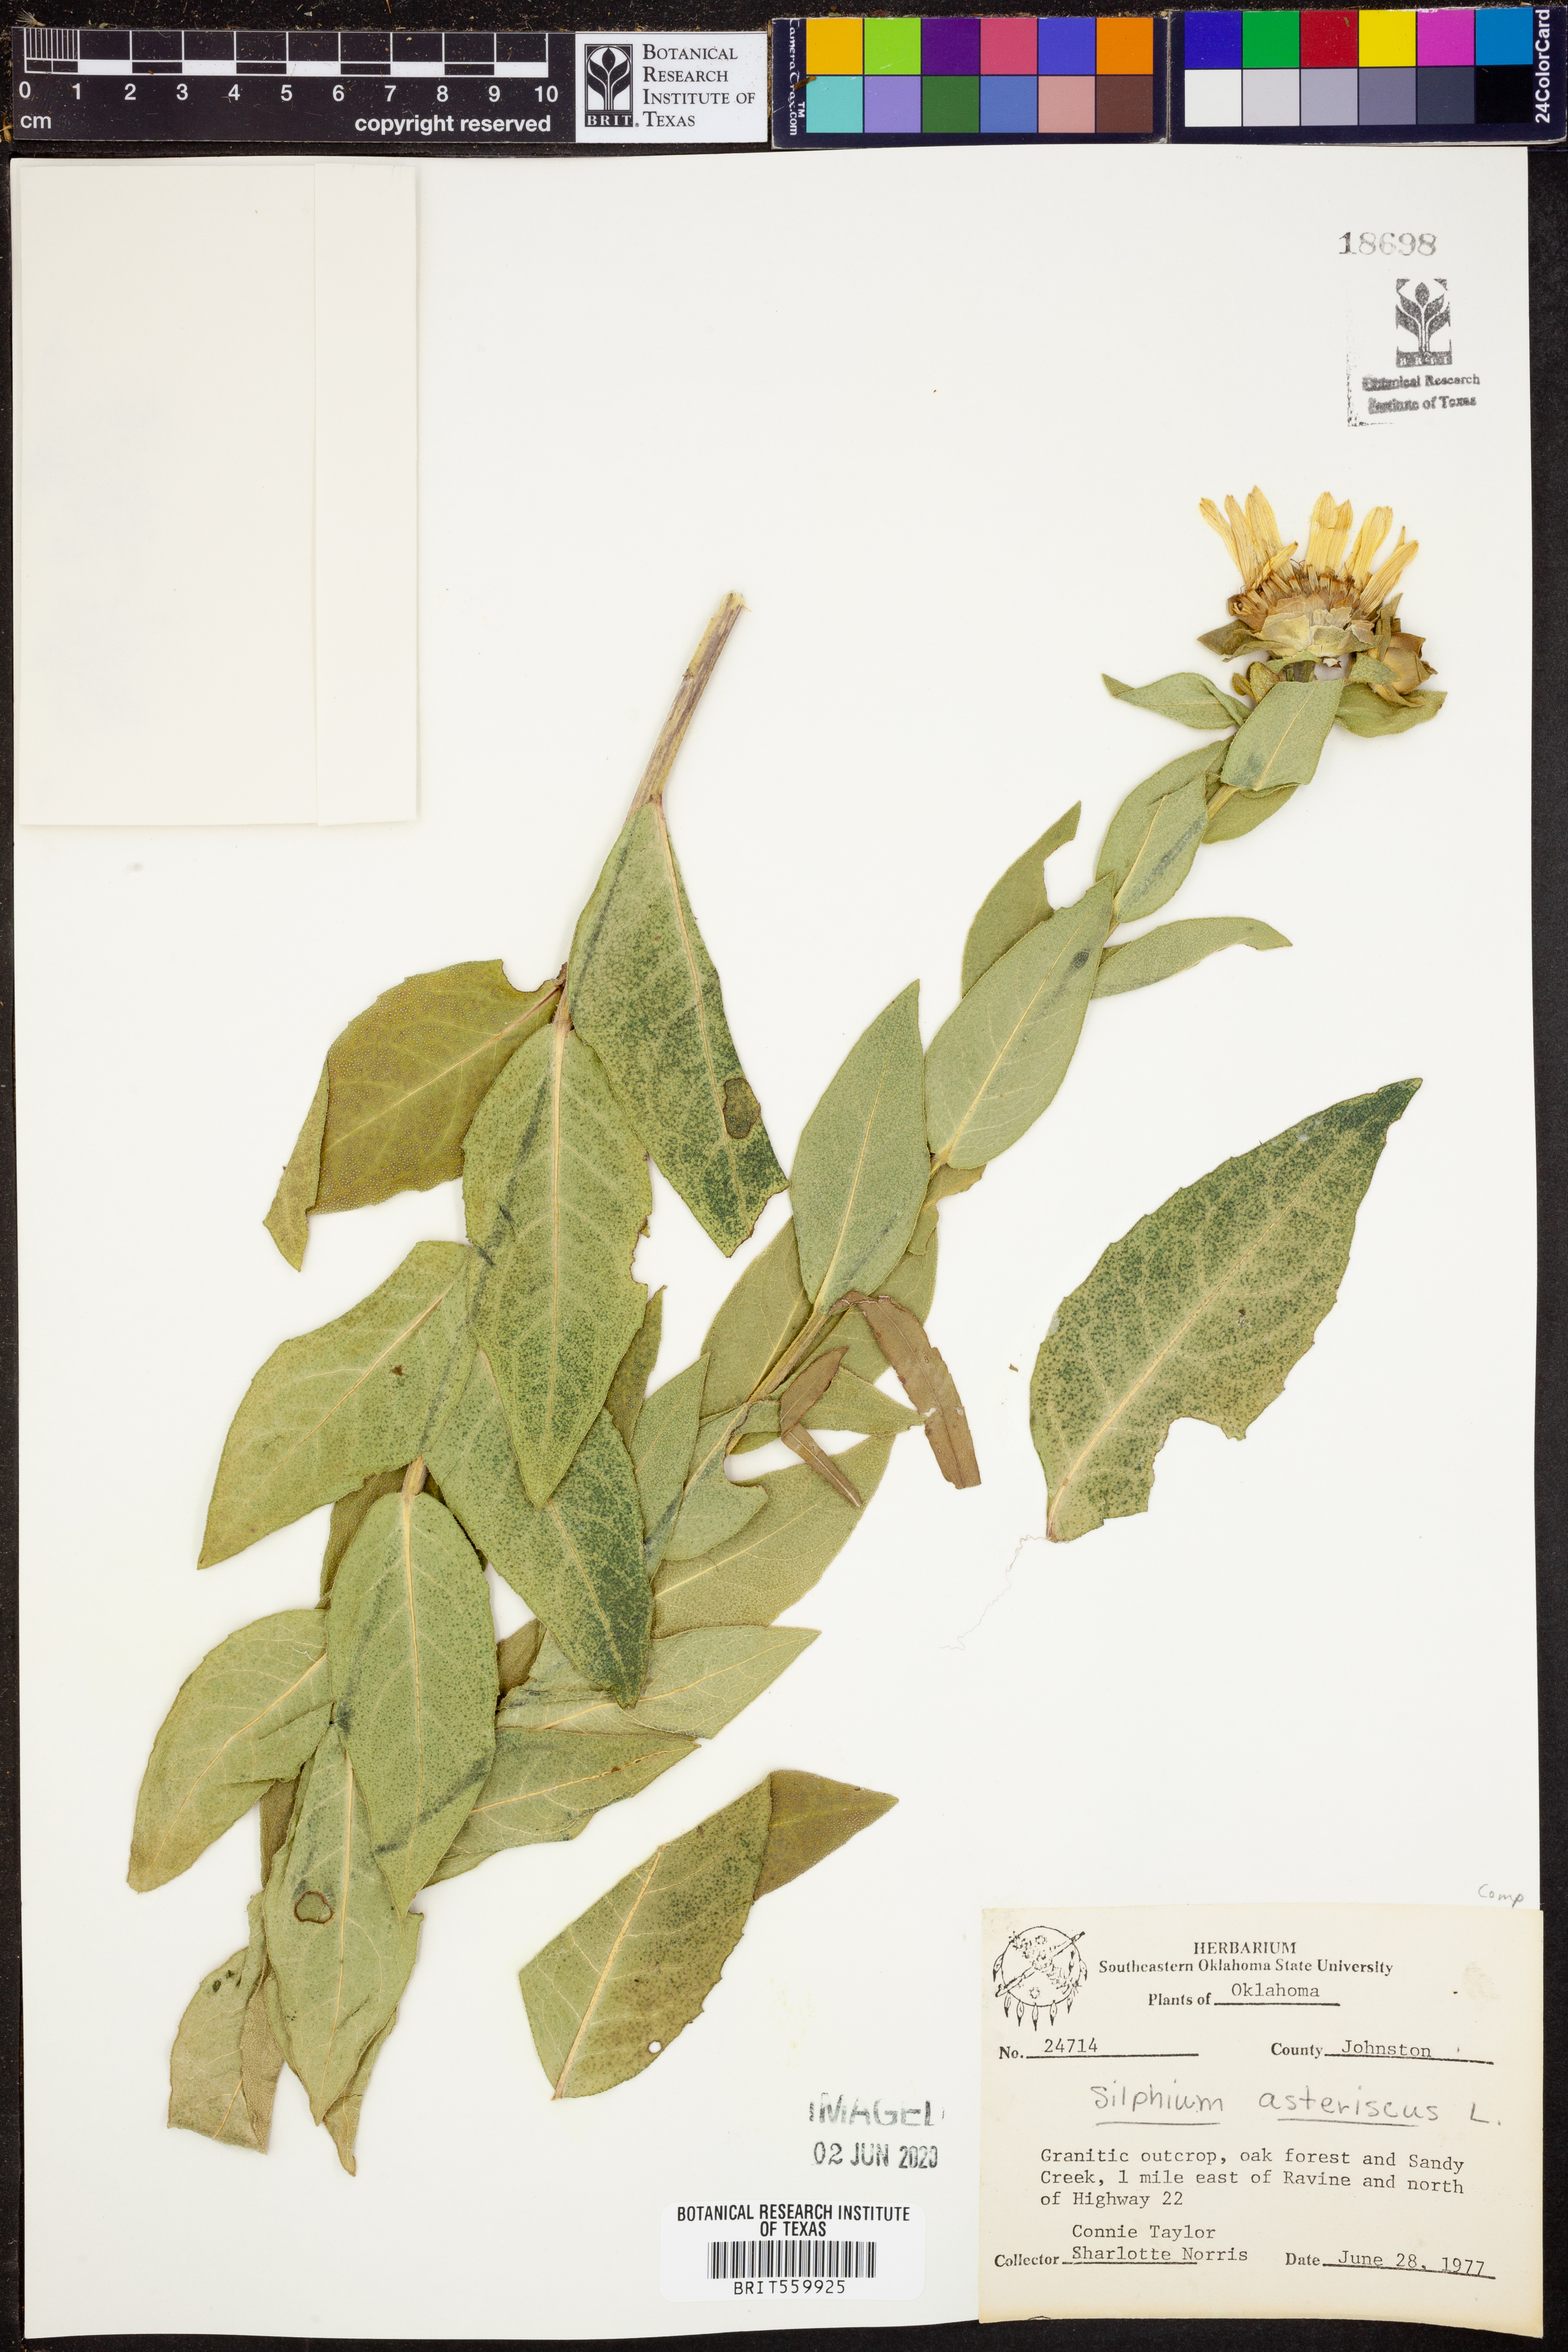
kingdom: Plantae
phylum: Tracheophyta
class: Magnoliopsida
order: Asterales
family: Asteraceae
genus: Silphium
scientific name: Silphium asteriscus
